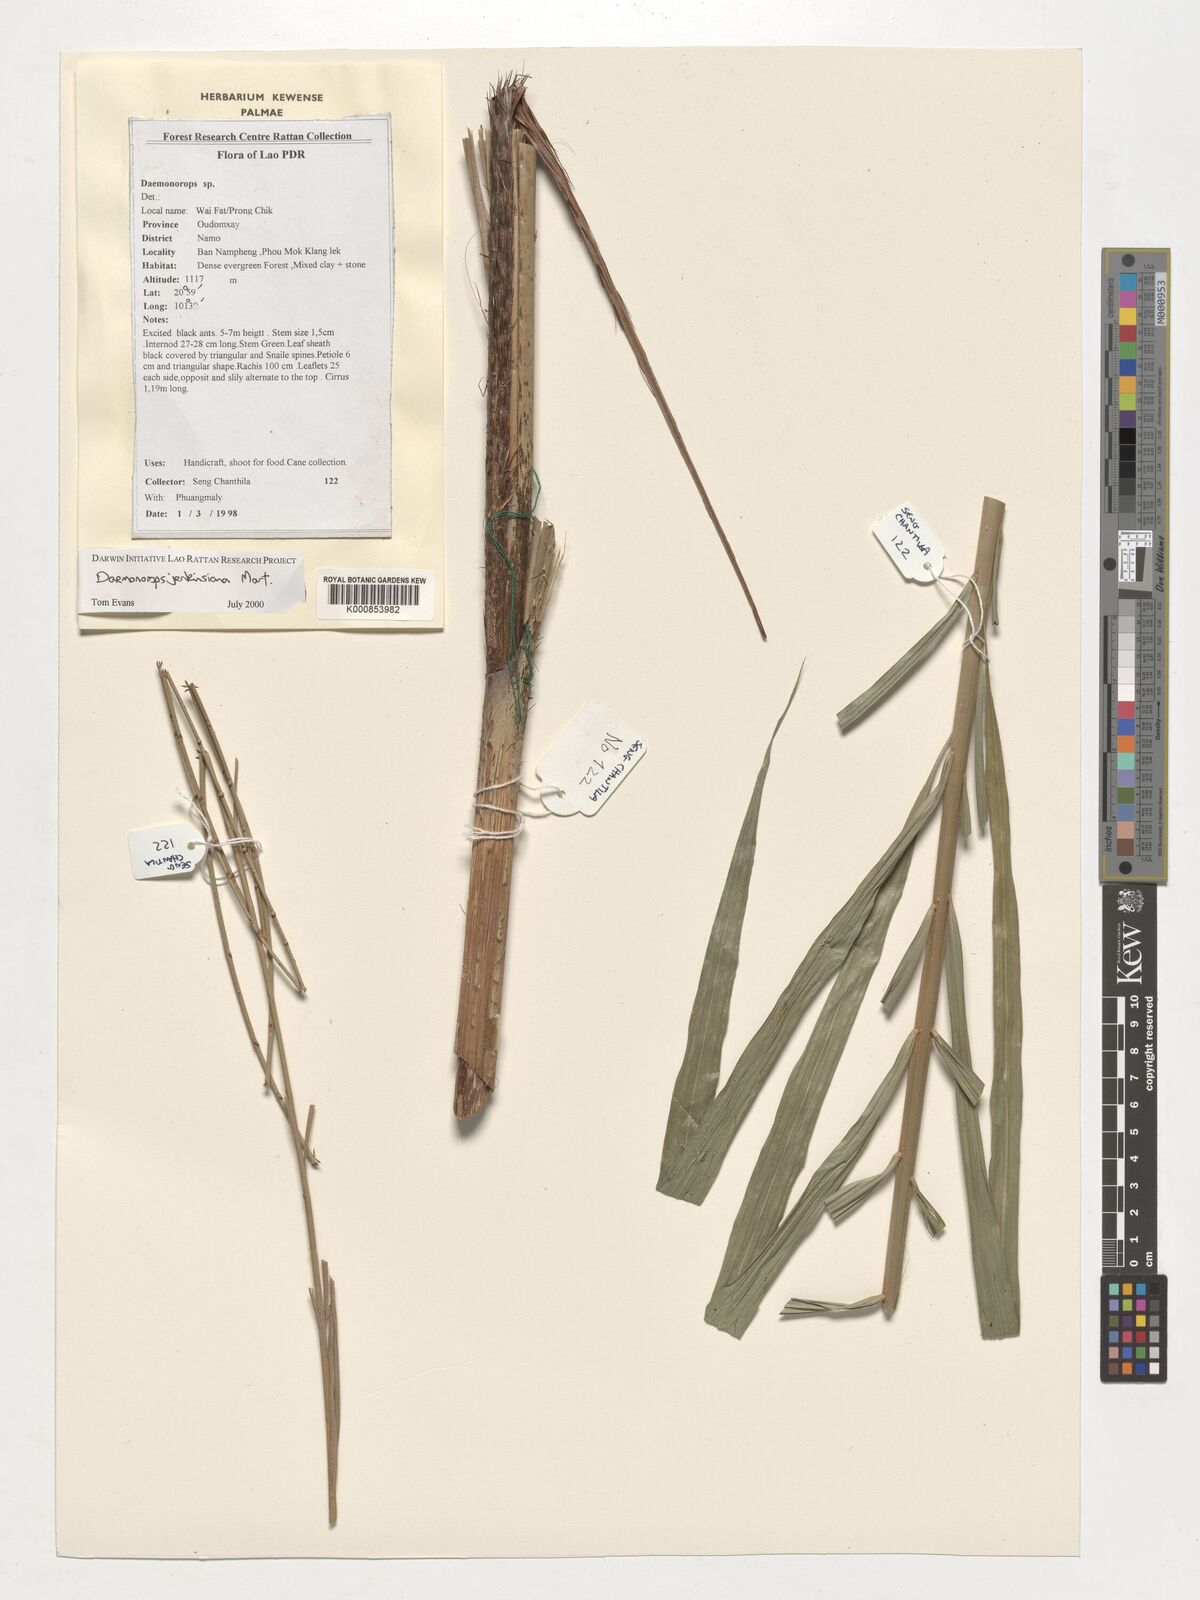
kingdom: Plantae
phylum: Tracheophyta
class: Liliopsida
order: Arecales
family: Arecaceae
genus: Calamus
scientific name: Calamus melanochaetes
